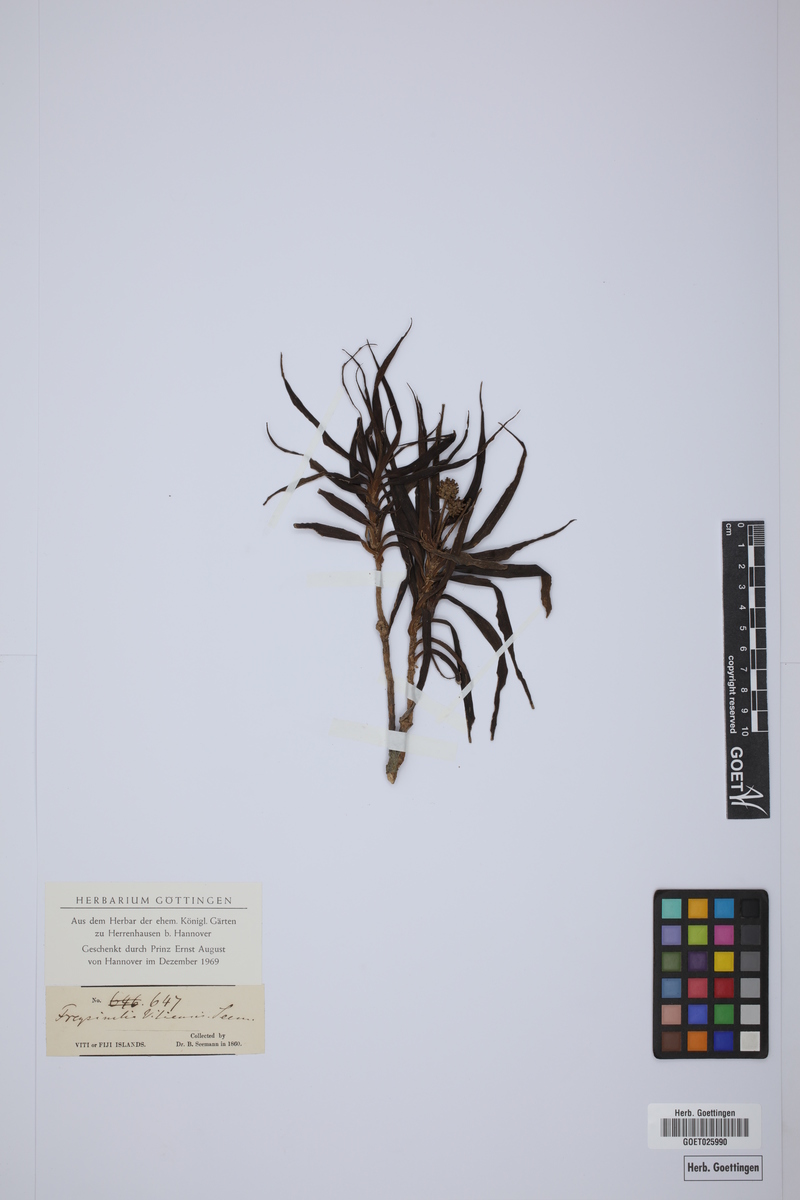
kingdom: Plantae
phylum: Tracheophyta
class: Liliopsida
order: Pandanales
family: Pandanaceae
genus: Freycinetia
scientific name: Freycinetia vitiensis
